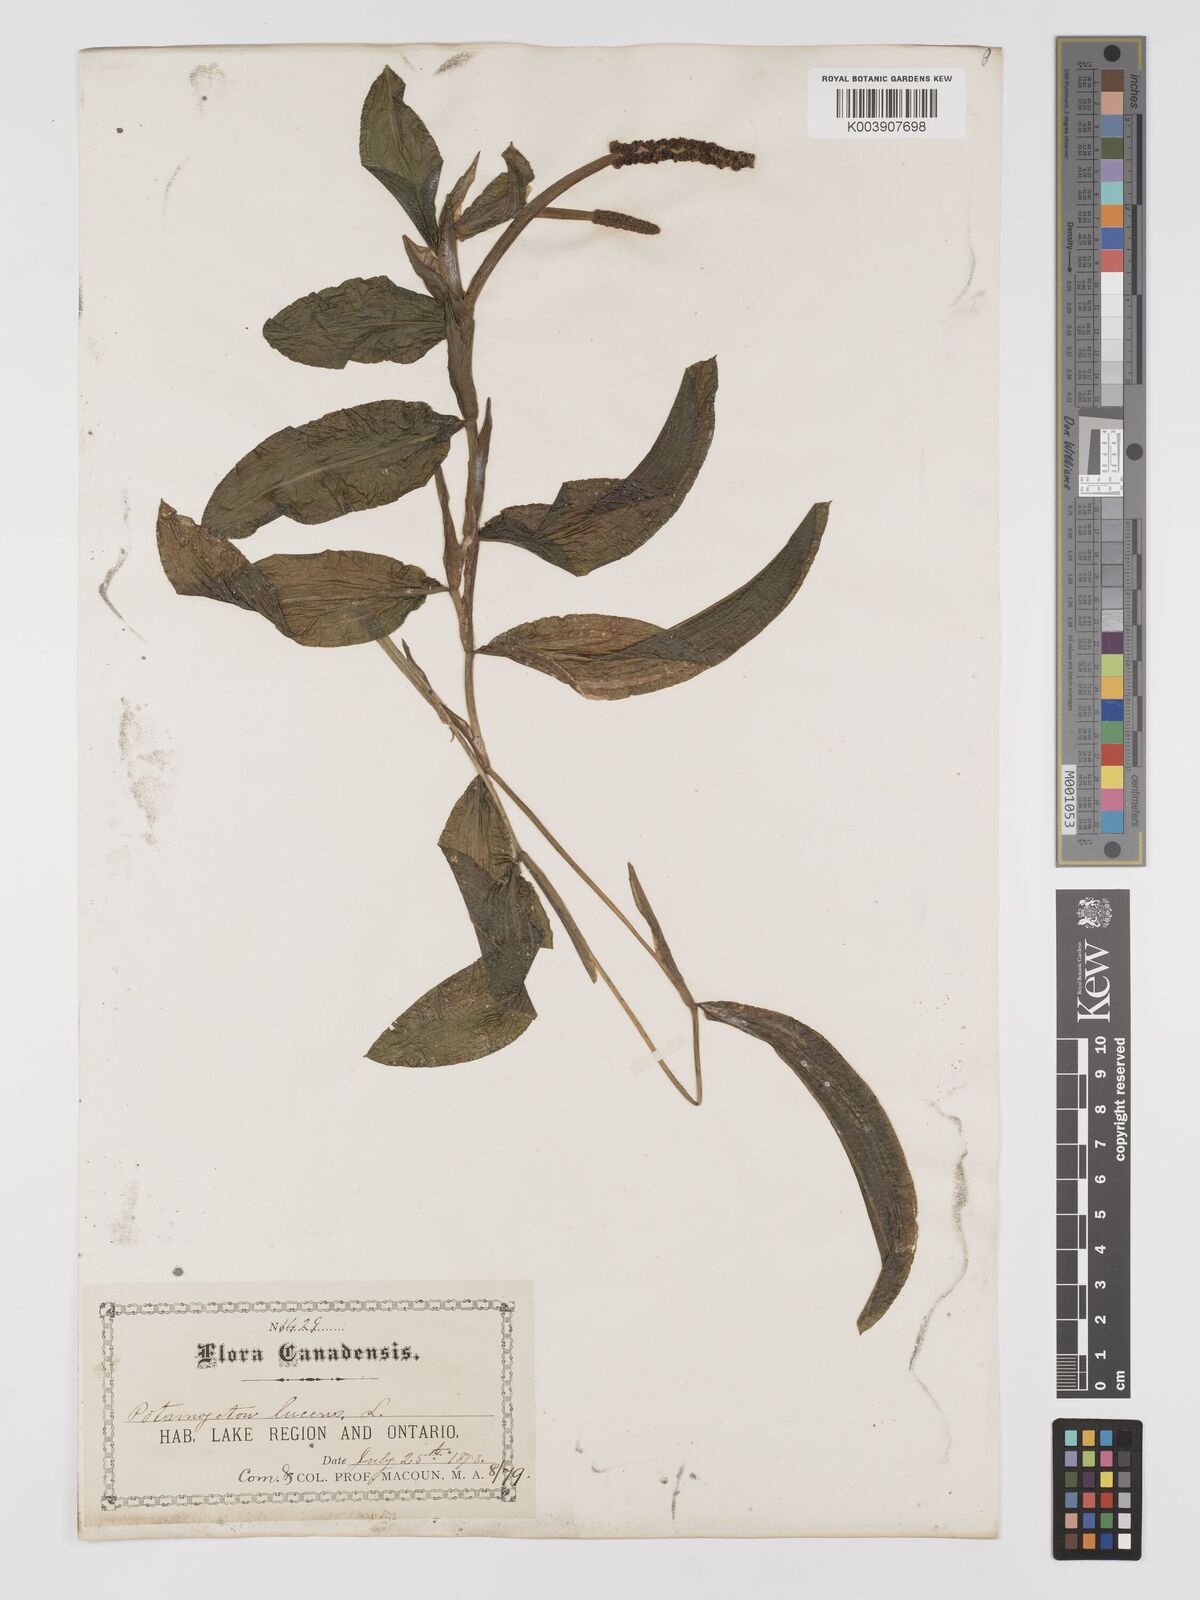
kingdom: Plantae
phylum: Tracheophyta
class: Liliopsida
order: Alismatales
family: Potamogetonaceae
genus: Potamogeton
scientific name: Potamogeton lucens
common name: Shining pondweed
